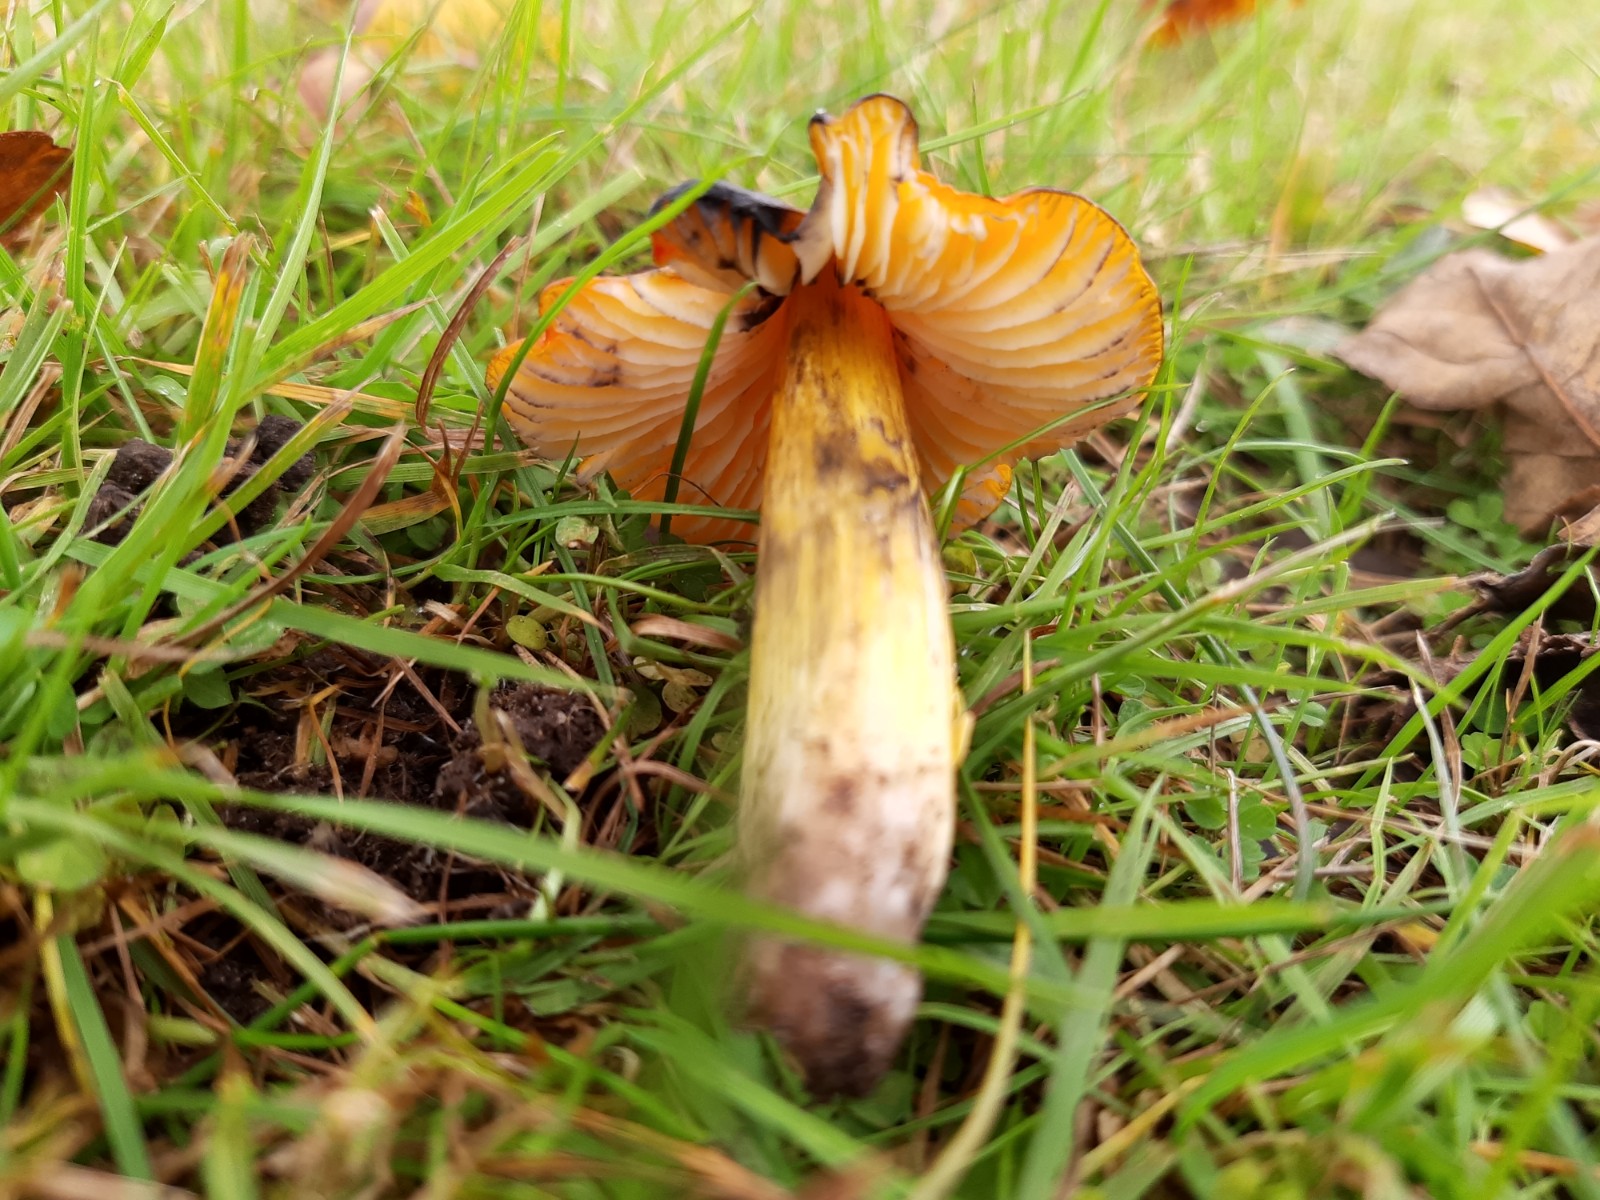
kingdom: Fungi
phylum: Basidiomycota
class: Agaricomycetes
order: Agaricales
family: Hygrophoraceae
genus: Hygrocybe
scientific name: Hygrocybe conica
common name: kegle-vokshat
